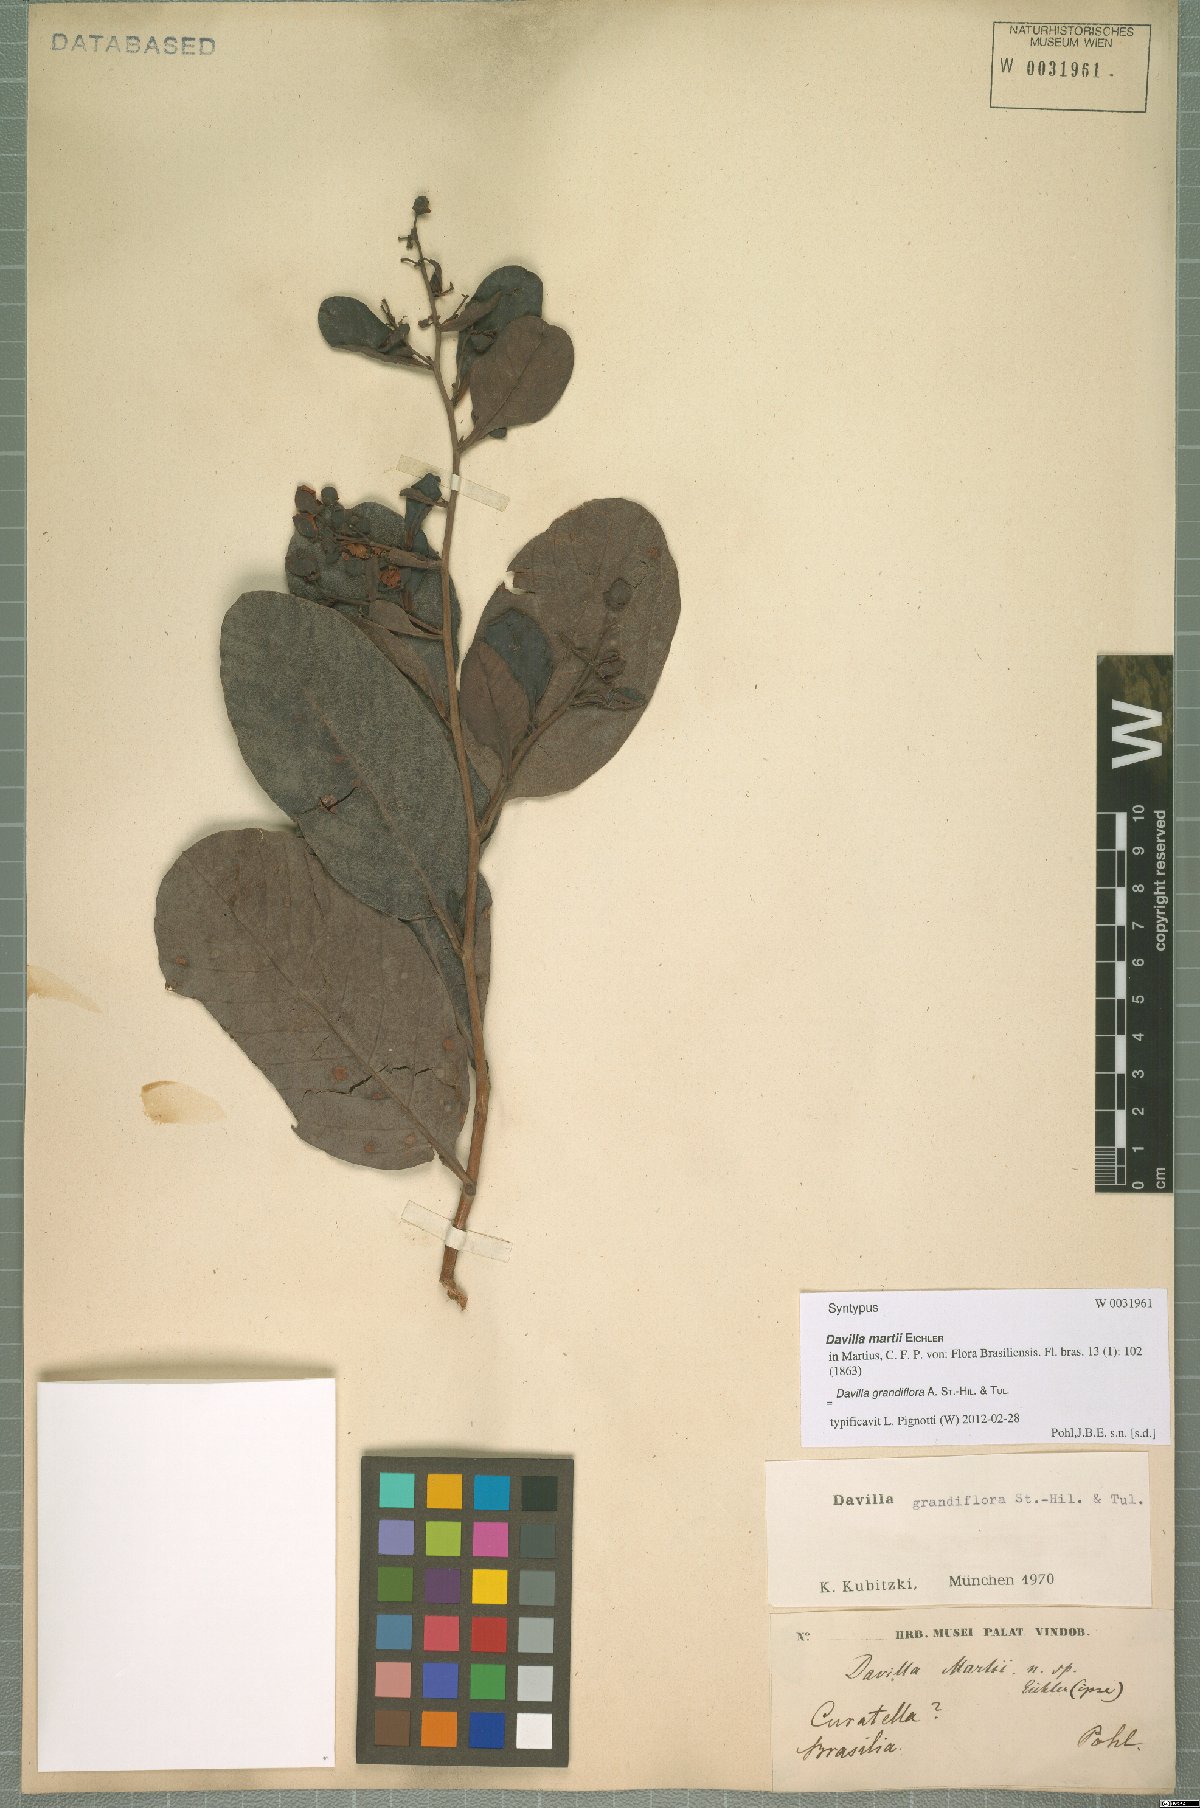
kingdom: Plantae
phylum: Tracheophyta
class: Magnoliopsida
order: Dilleniales
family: Dilleniaceae
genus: Davilla
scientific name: Davilla grandiflora
